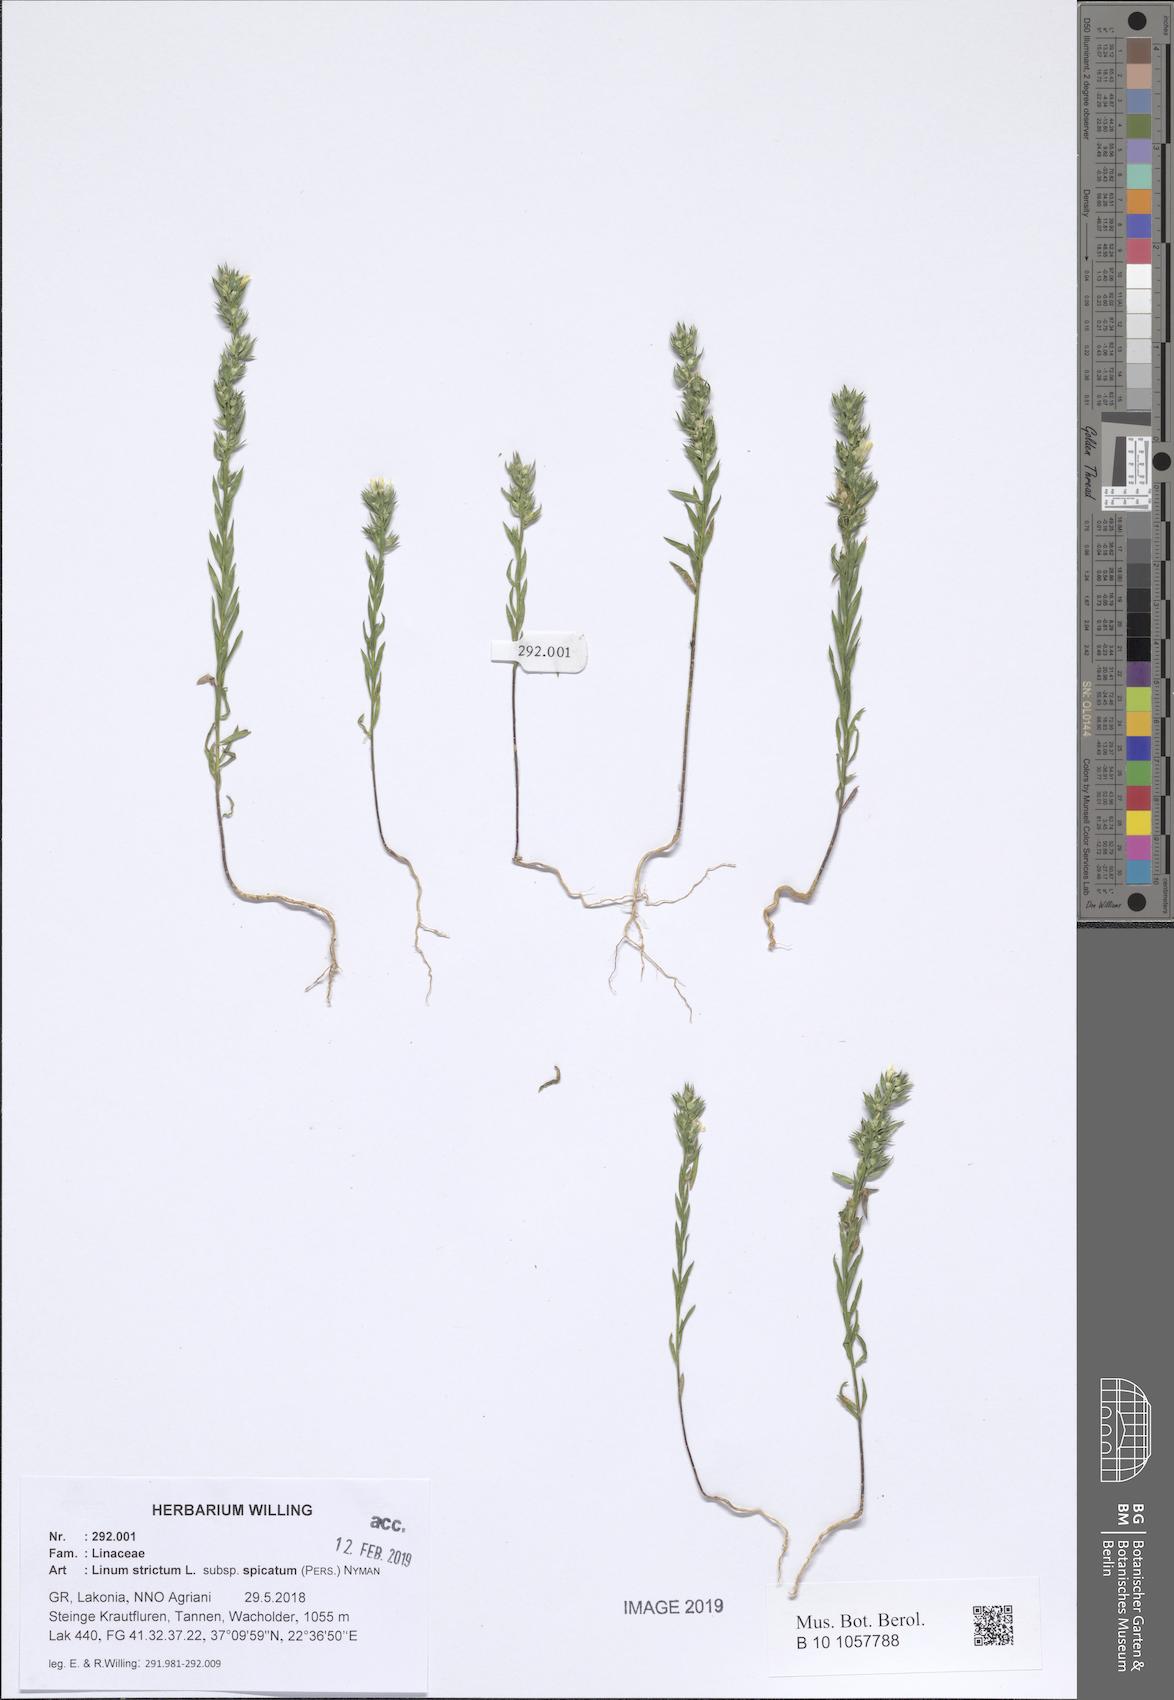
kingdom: Plantae
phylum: Tracheophyta
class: Magnoliopsida
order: Malpighiales
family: Linaceae
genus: Linum
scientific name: Linum strictum
